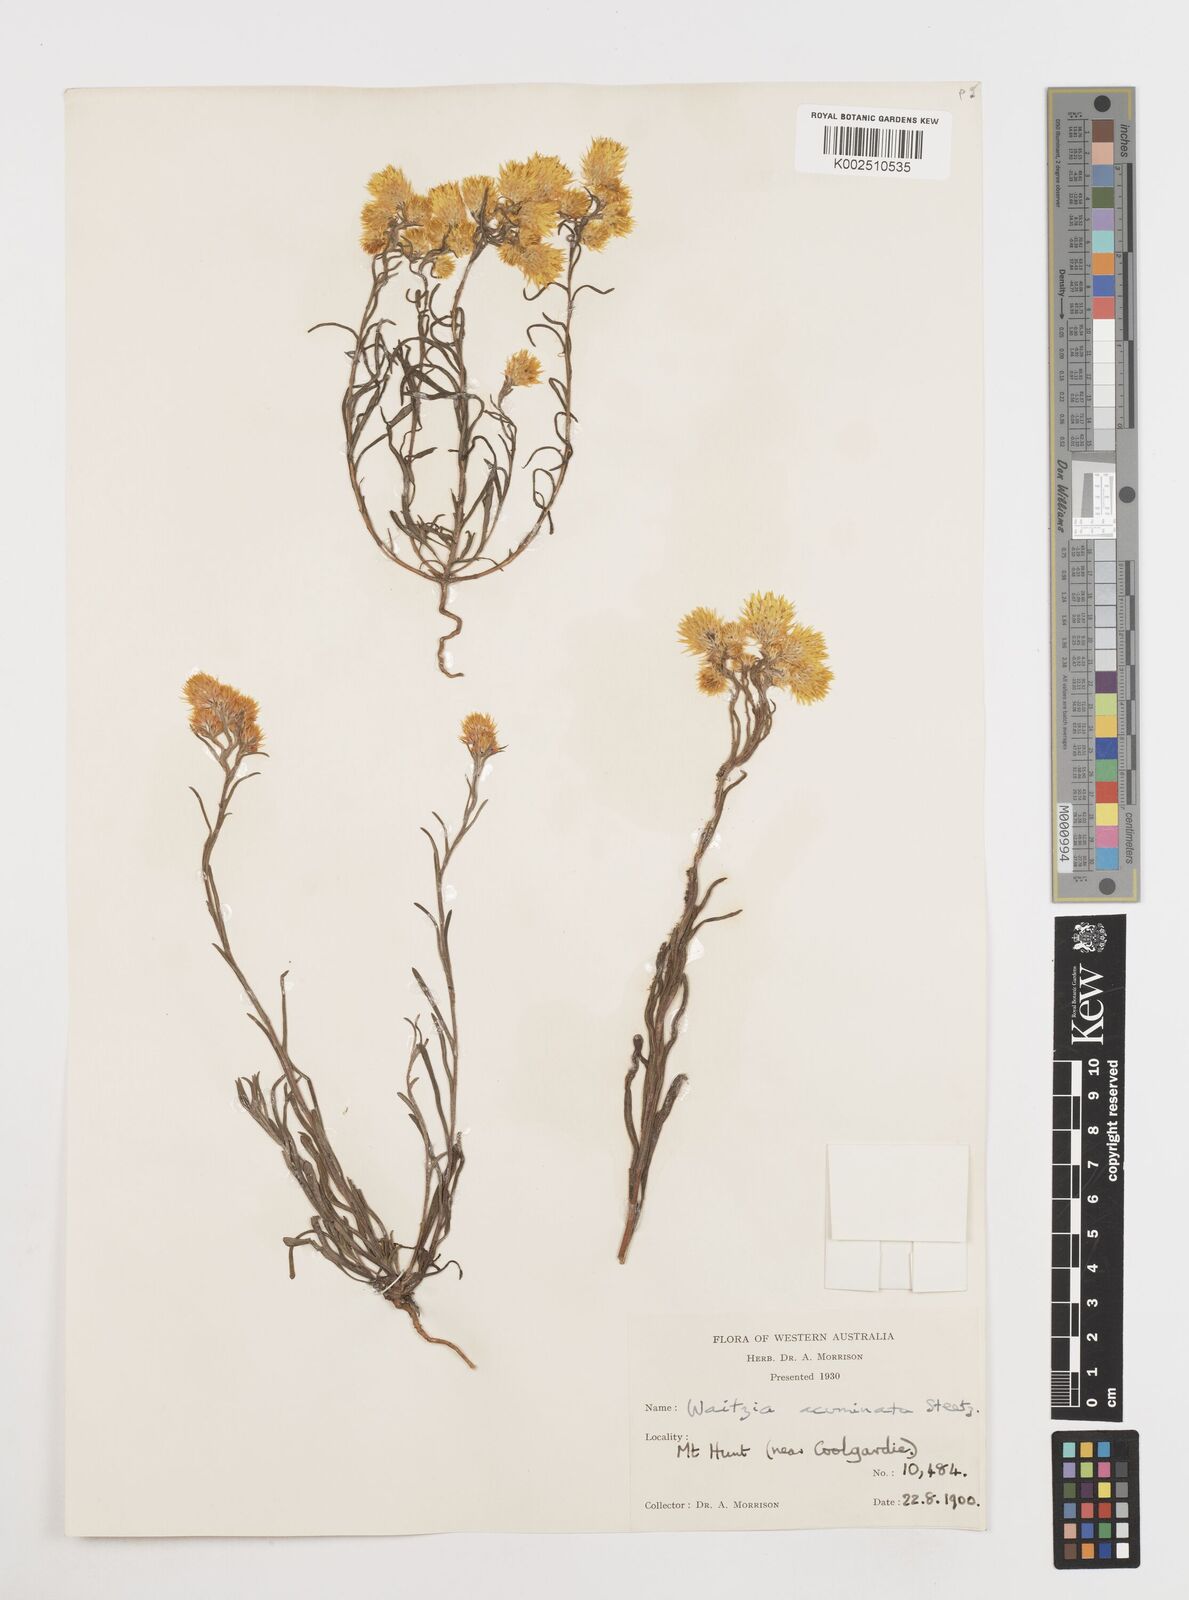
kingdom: Plantae
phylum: Tracheophyta
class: Magnoliopsida
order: Asterales
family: Asteraceae
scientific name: Asteraceae
